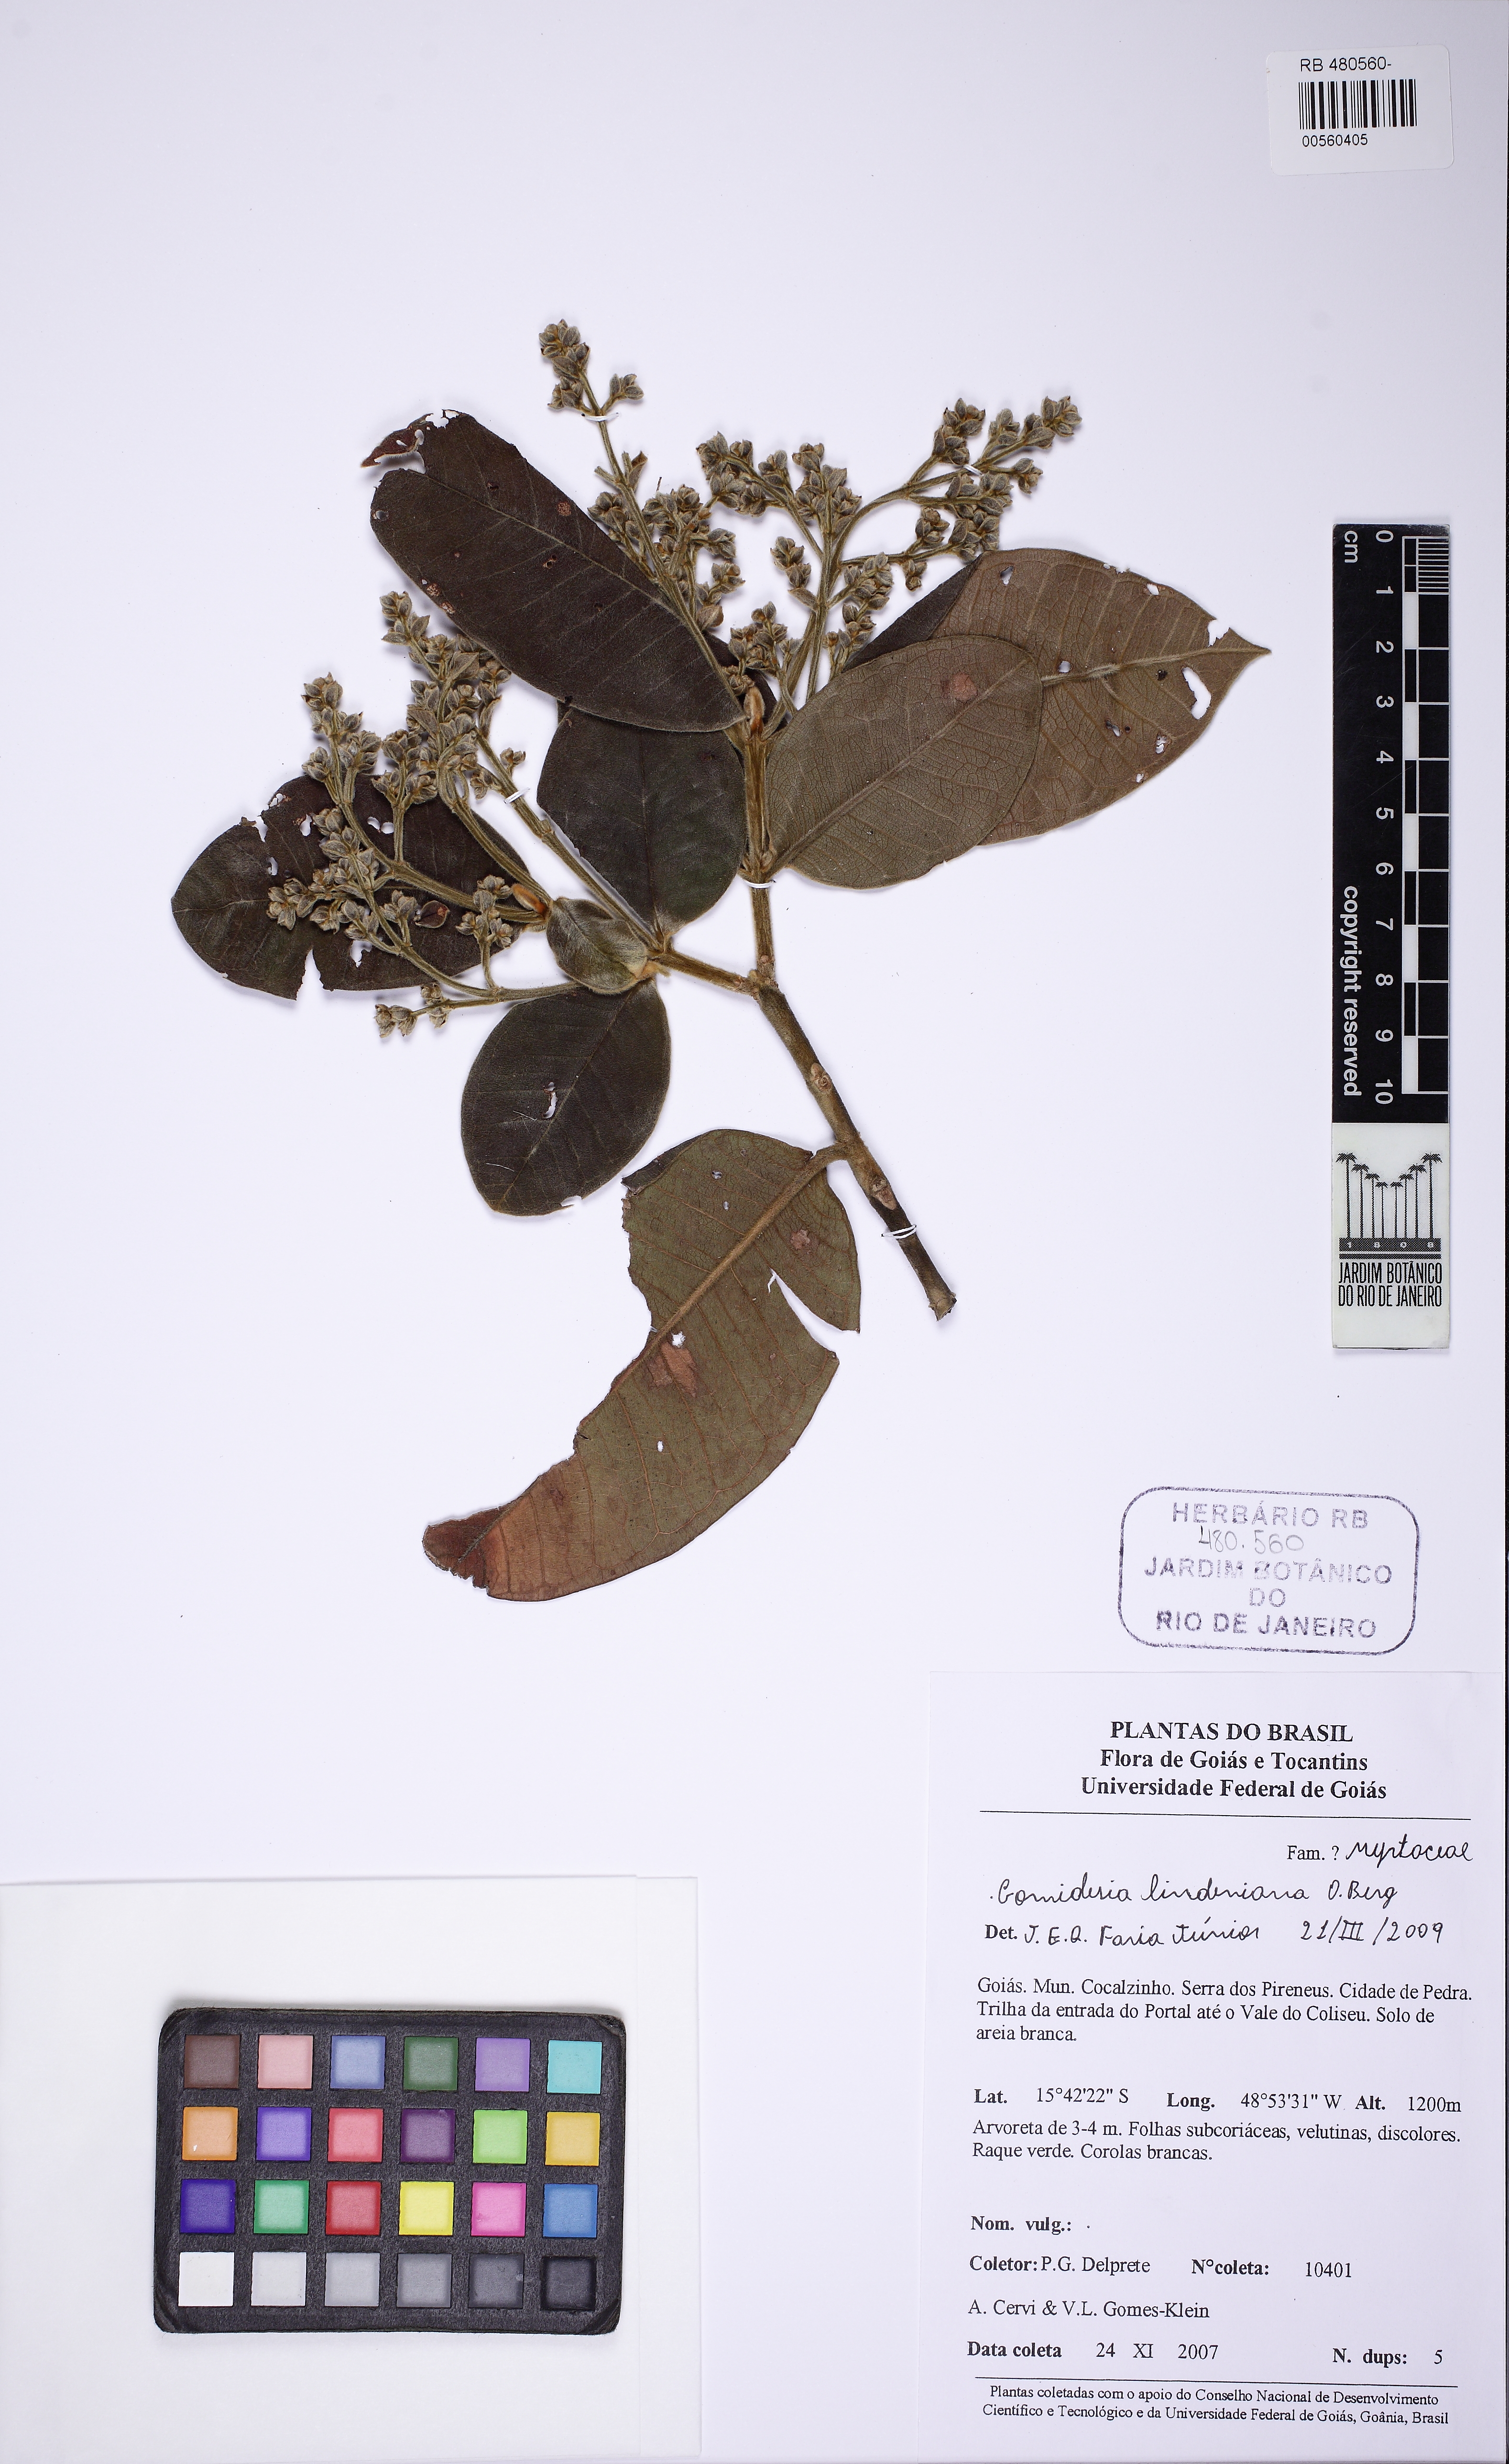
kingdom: Plantae
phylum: Tracheophyta
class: Magnoliopsida
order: Myrtales
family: Myrtaceae
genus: Myrcia
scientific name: Myrcia fenzliana
